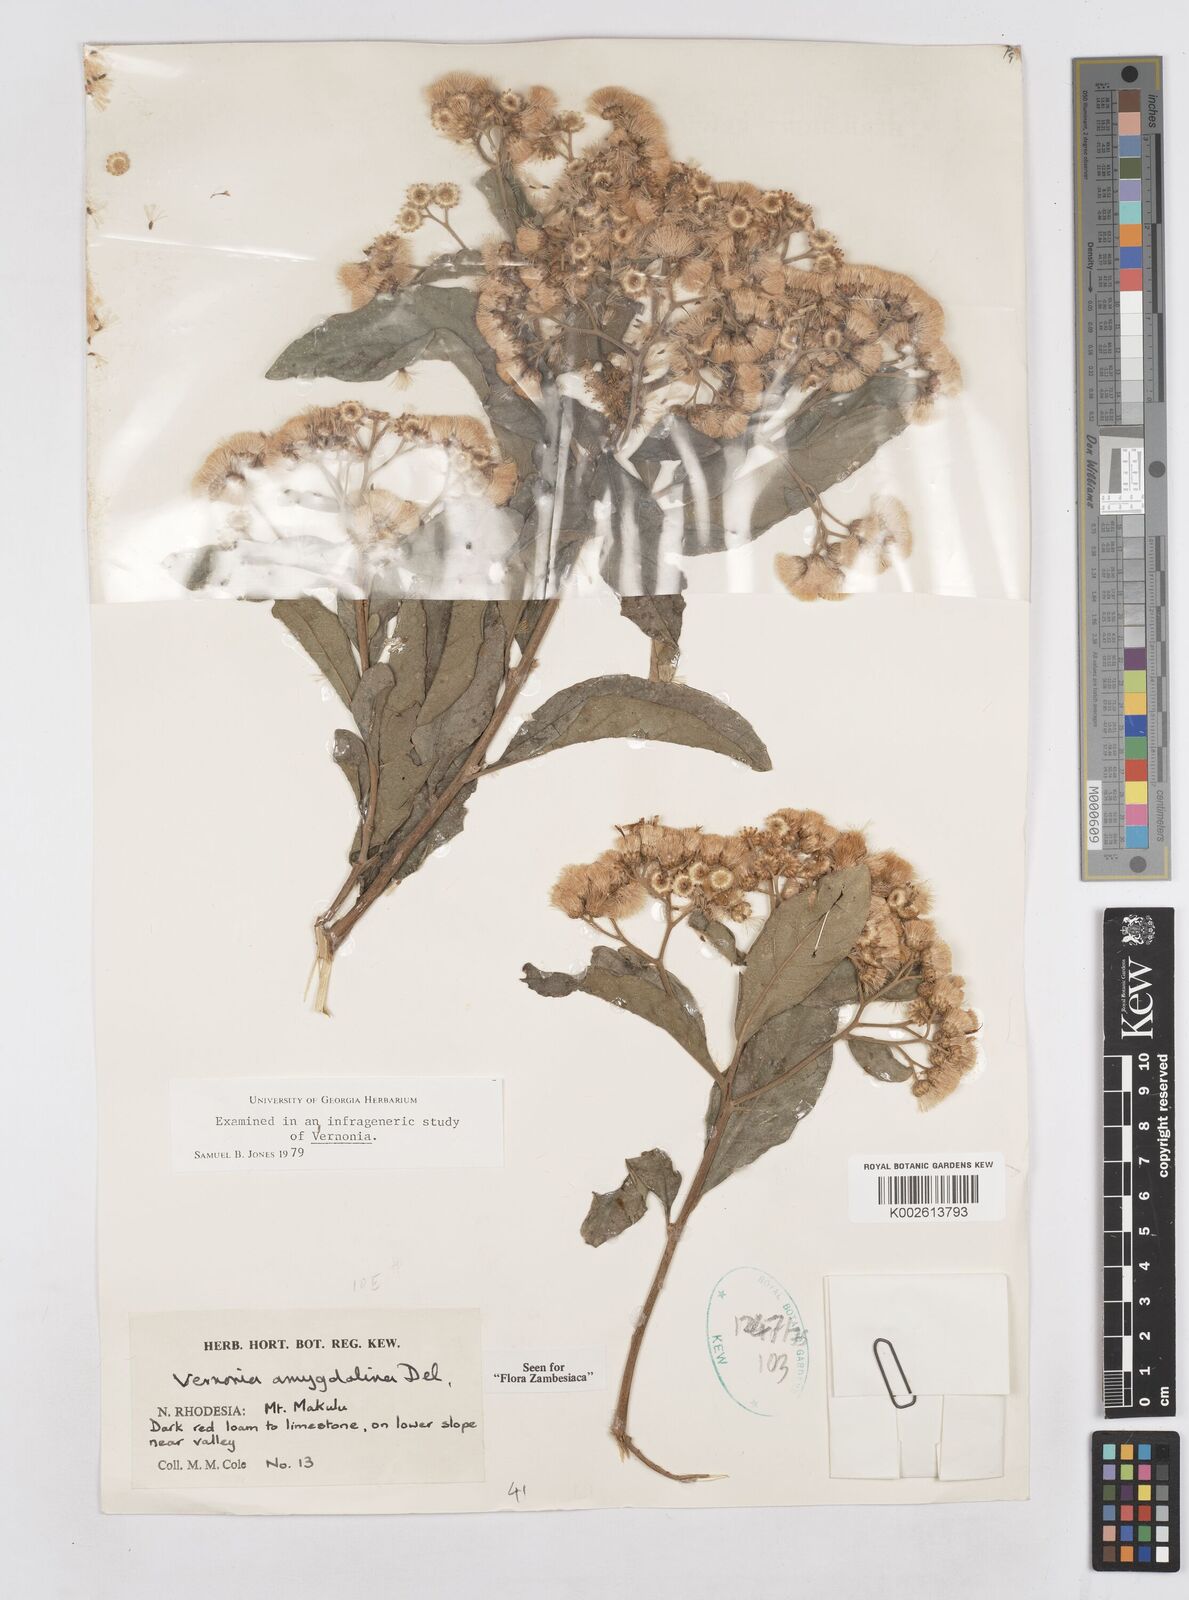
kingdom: Plantae
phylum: Tracheophyta
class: Magnoliopsida
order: Asterales
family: Asteraceae
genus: Gymnanthemum
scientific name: Gymnanthemum amygdalinum
